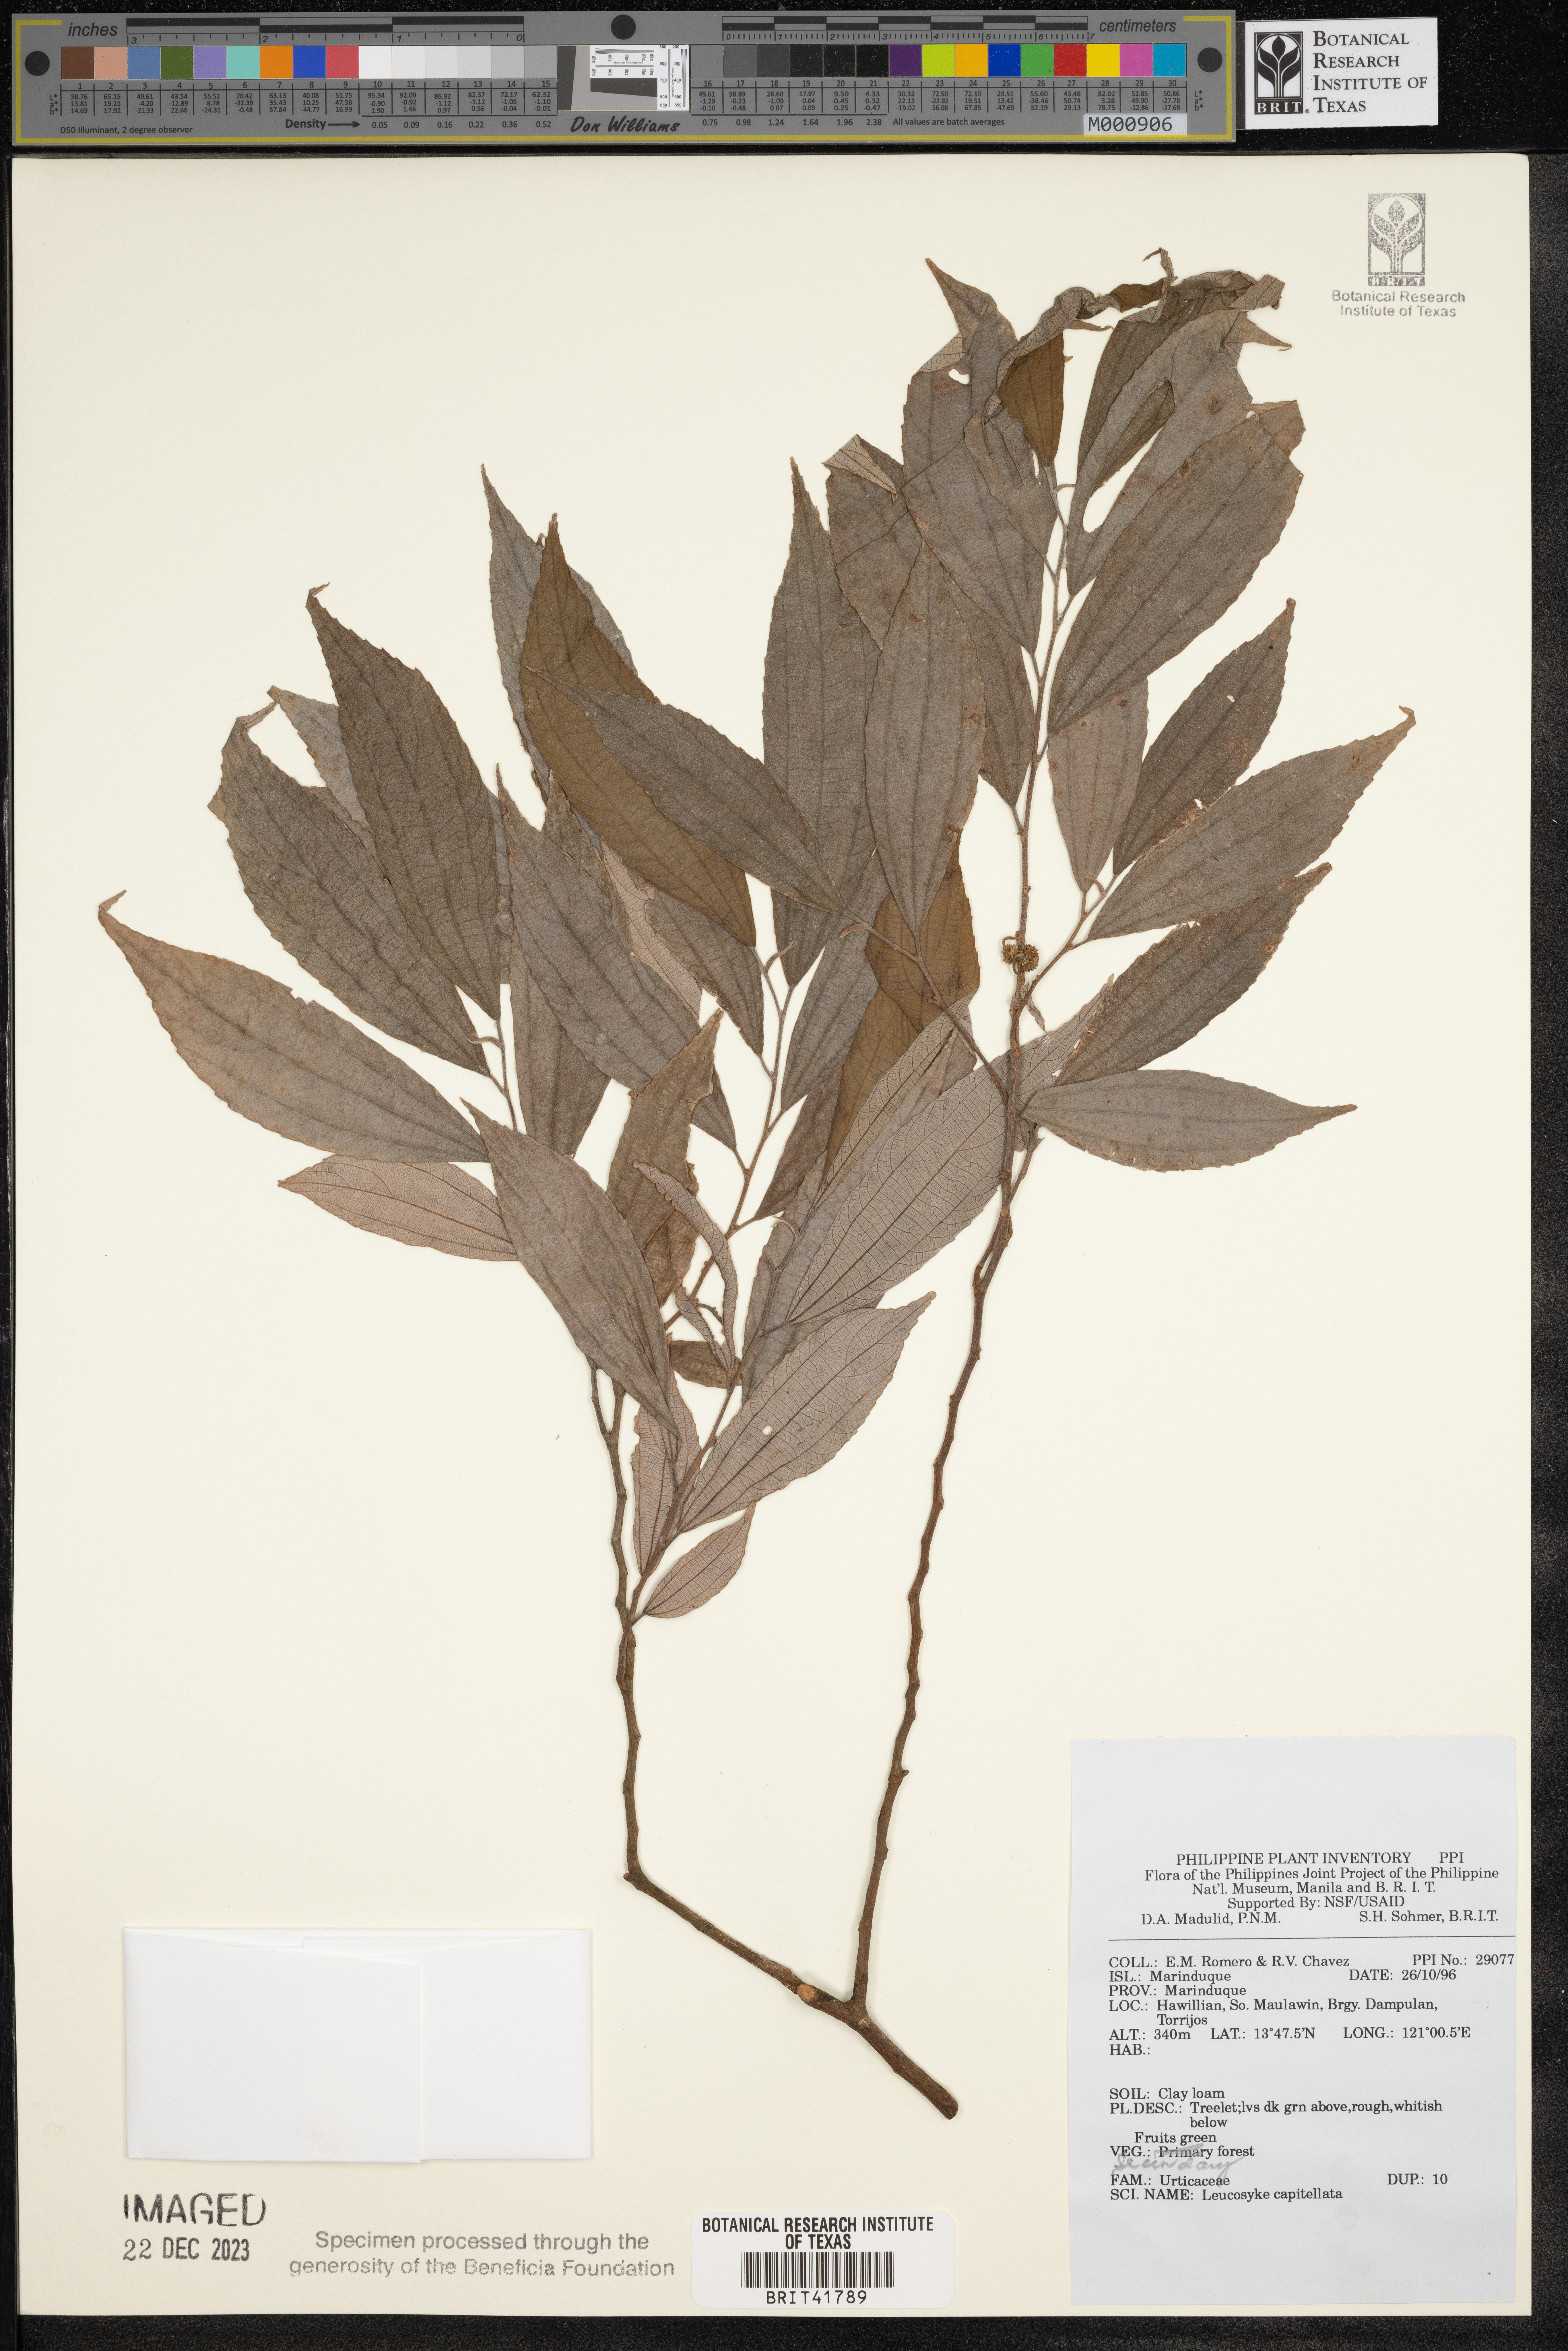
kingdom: Plantae
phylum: Tracheophyta
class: Magnoliopsida
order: Rosales
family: Urticaceae
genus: Leucosyke
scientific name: Leucosyke capitellata
